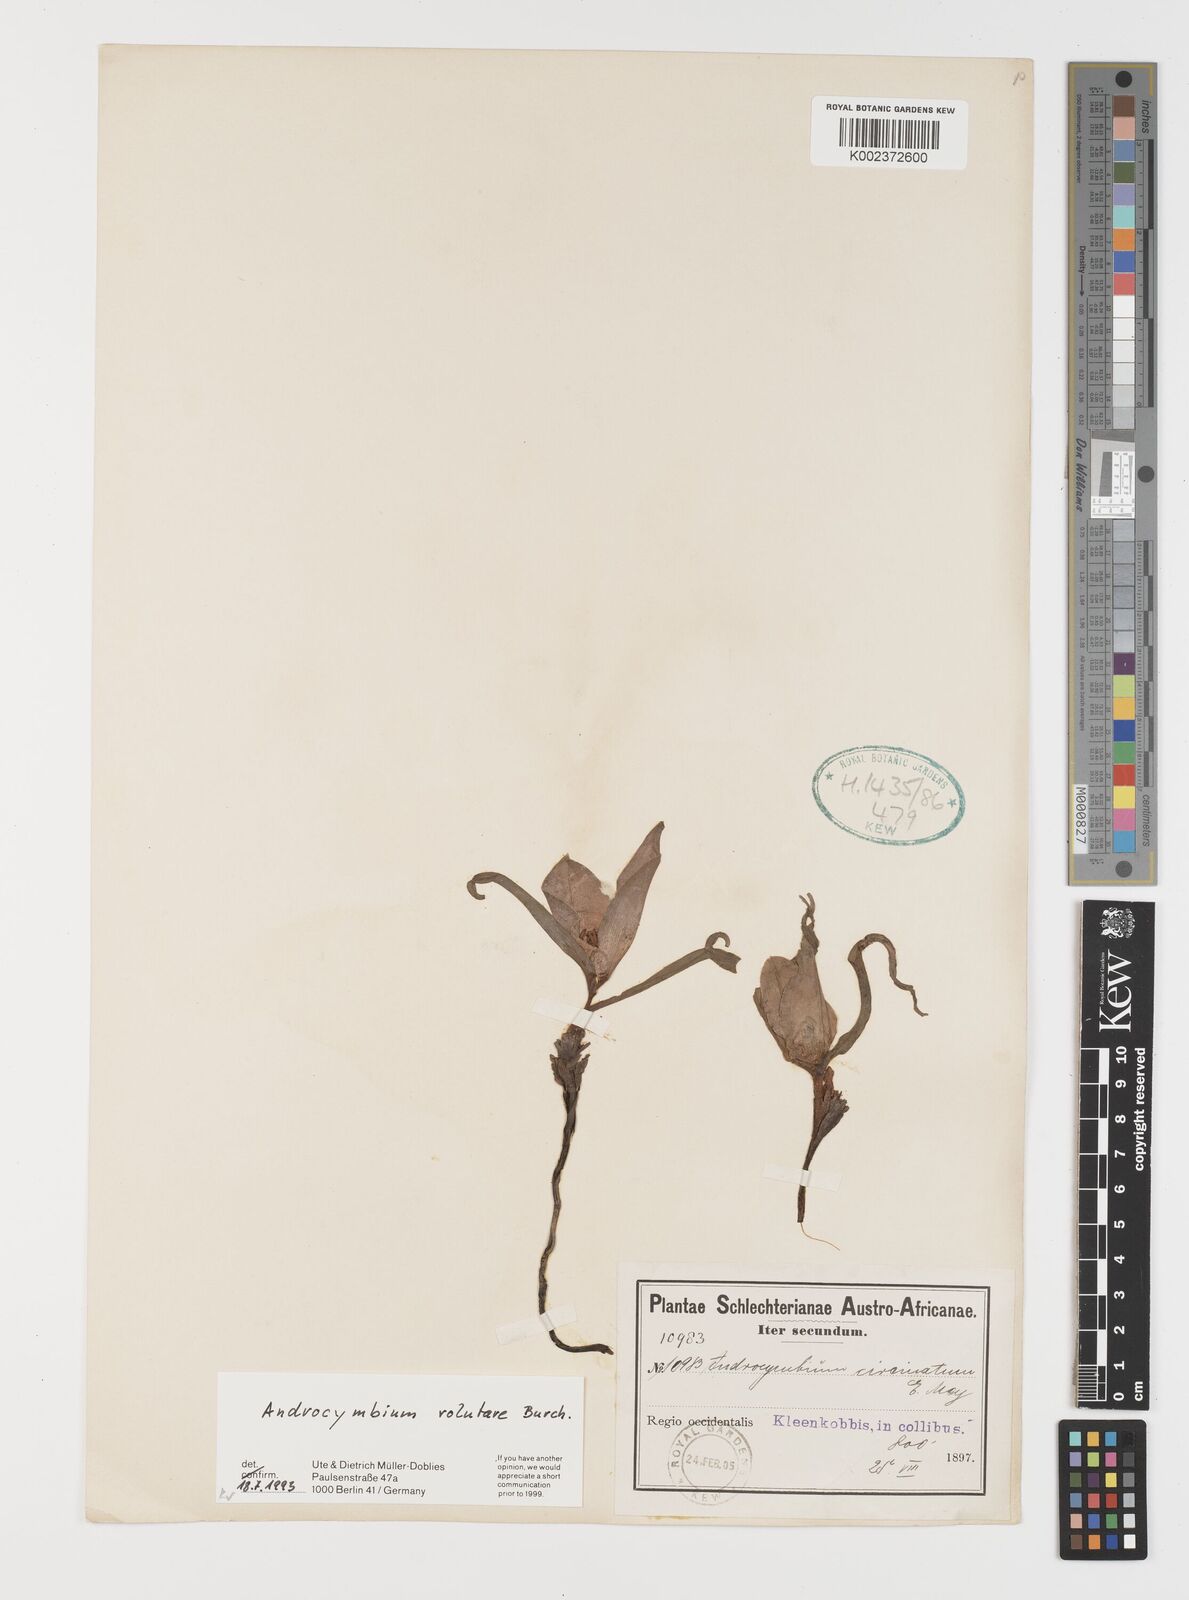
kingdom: Plantae
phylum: Tracheophyta
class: Liliopsida
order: Liliales
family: Colchicaceae
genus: Colchicum
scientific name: Colchicum volutare
